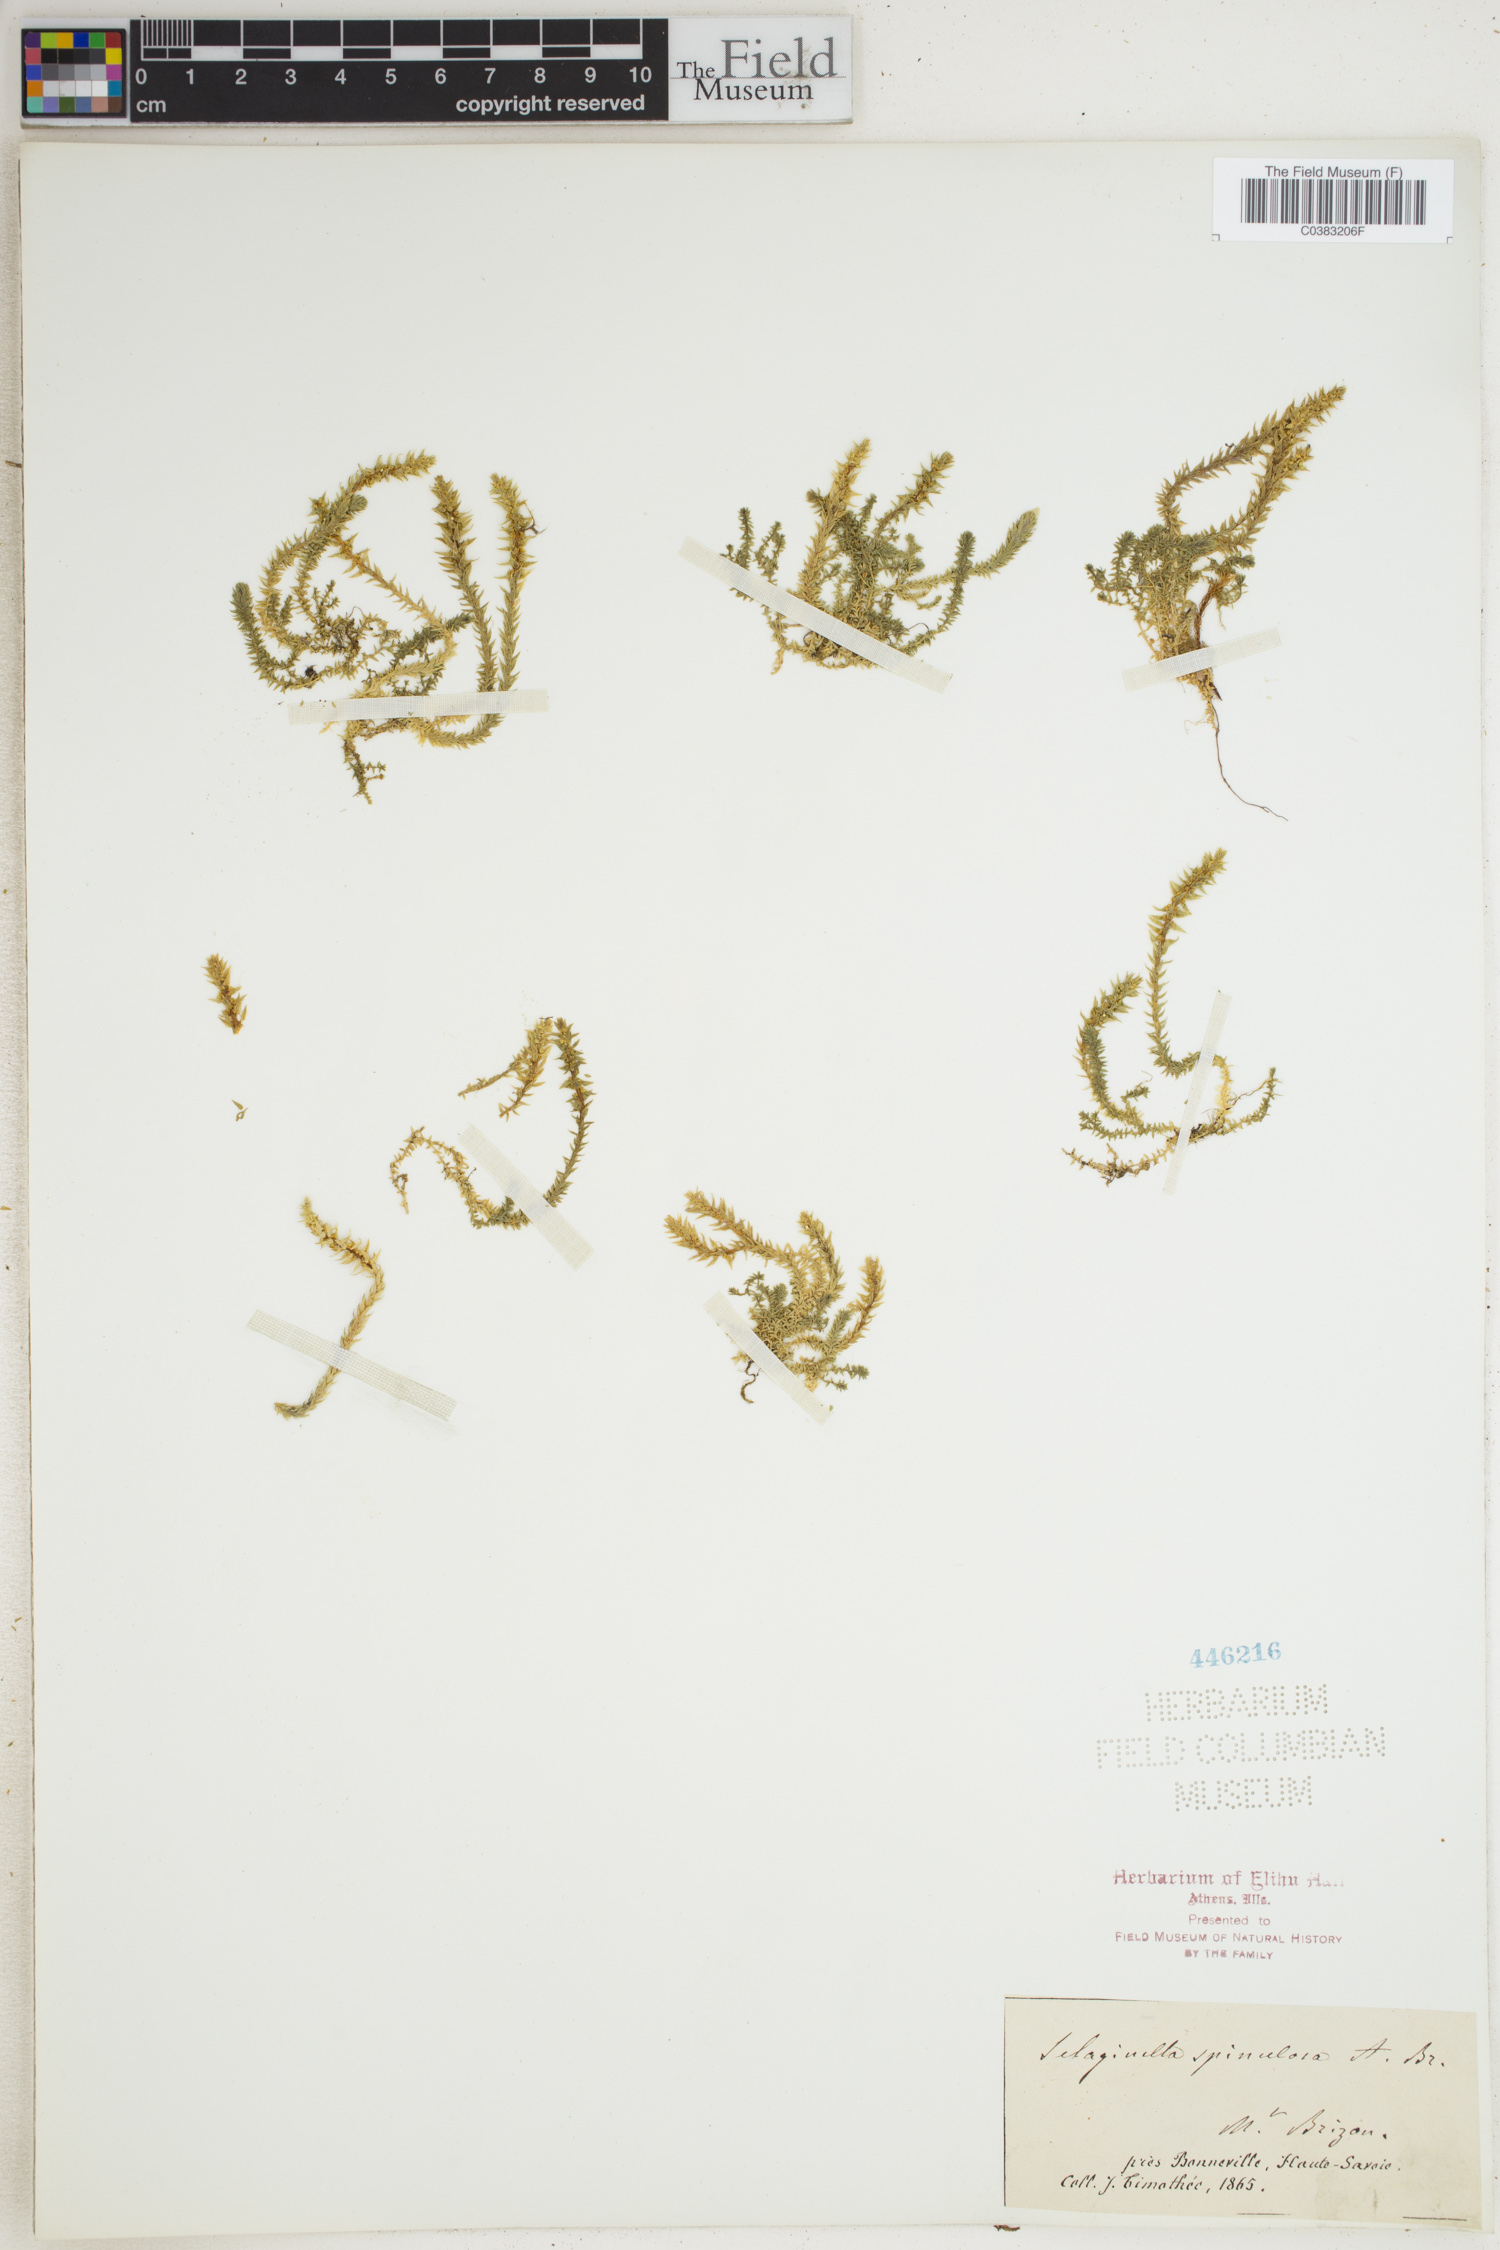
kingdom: Plantae
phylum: Tracheophyta
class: Lycopodiopsida
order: Selaginellales
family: Selaginellaceae
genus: Selaginella
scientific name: Selaginella selaginoides
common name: Prickly mountain-moss
